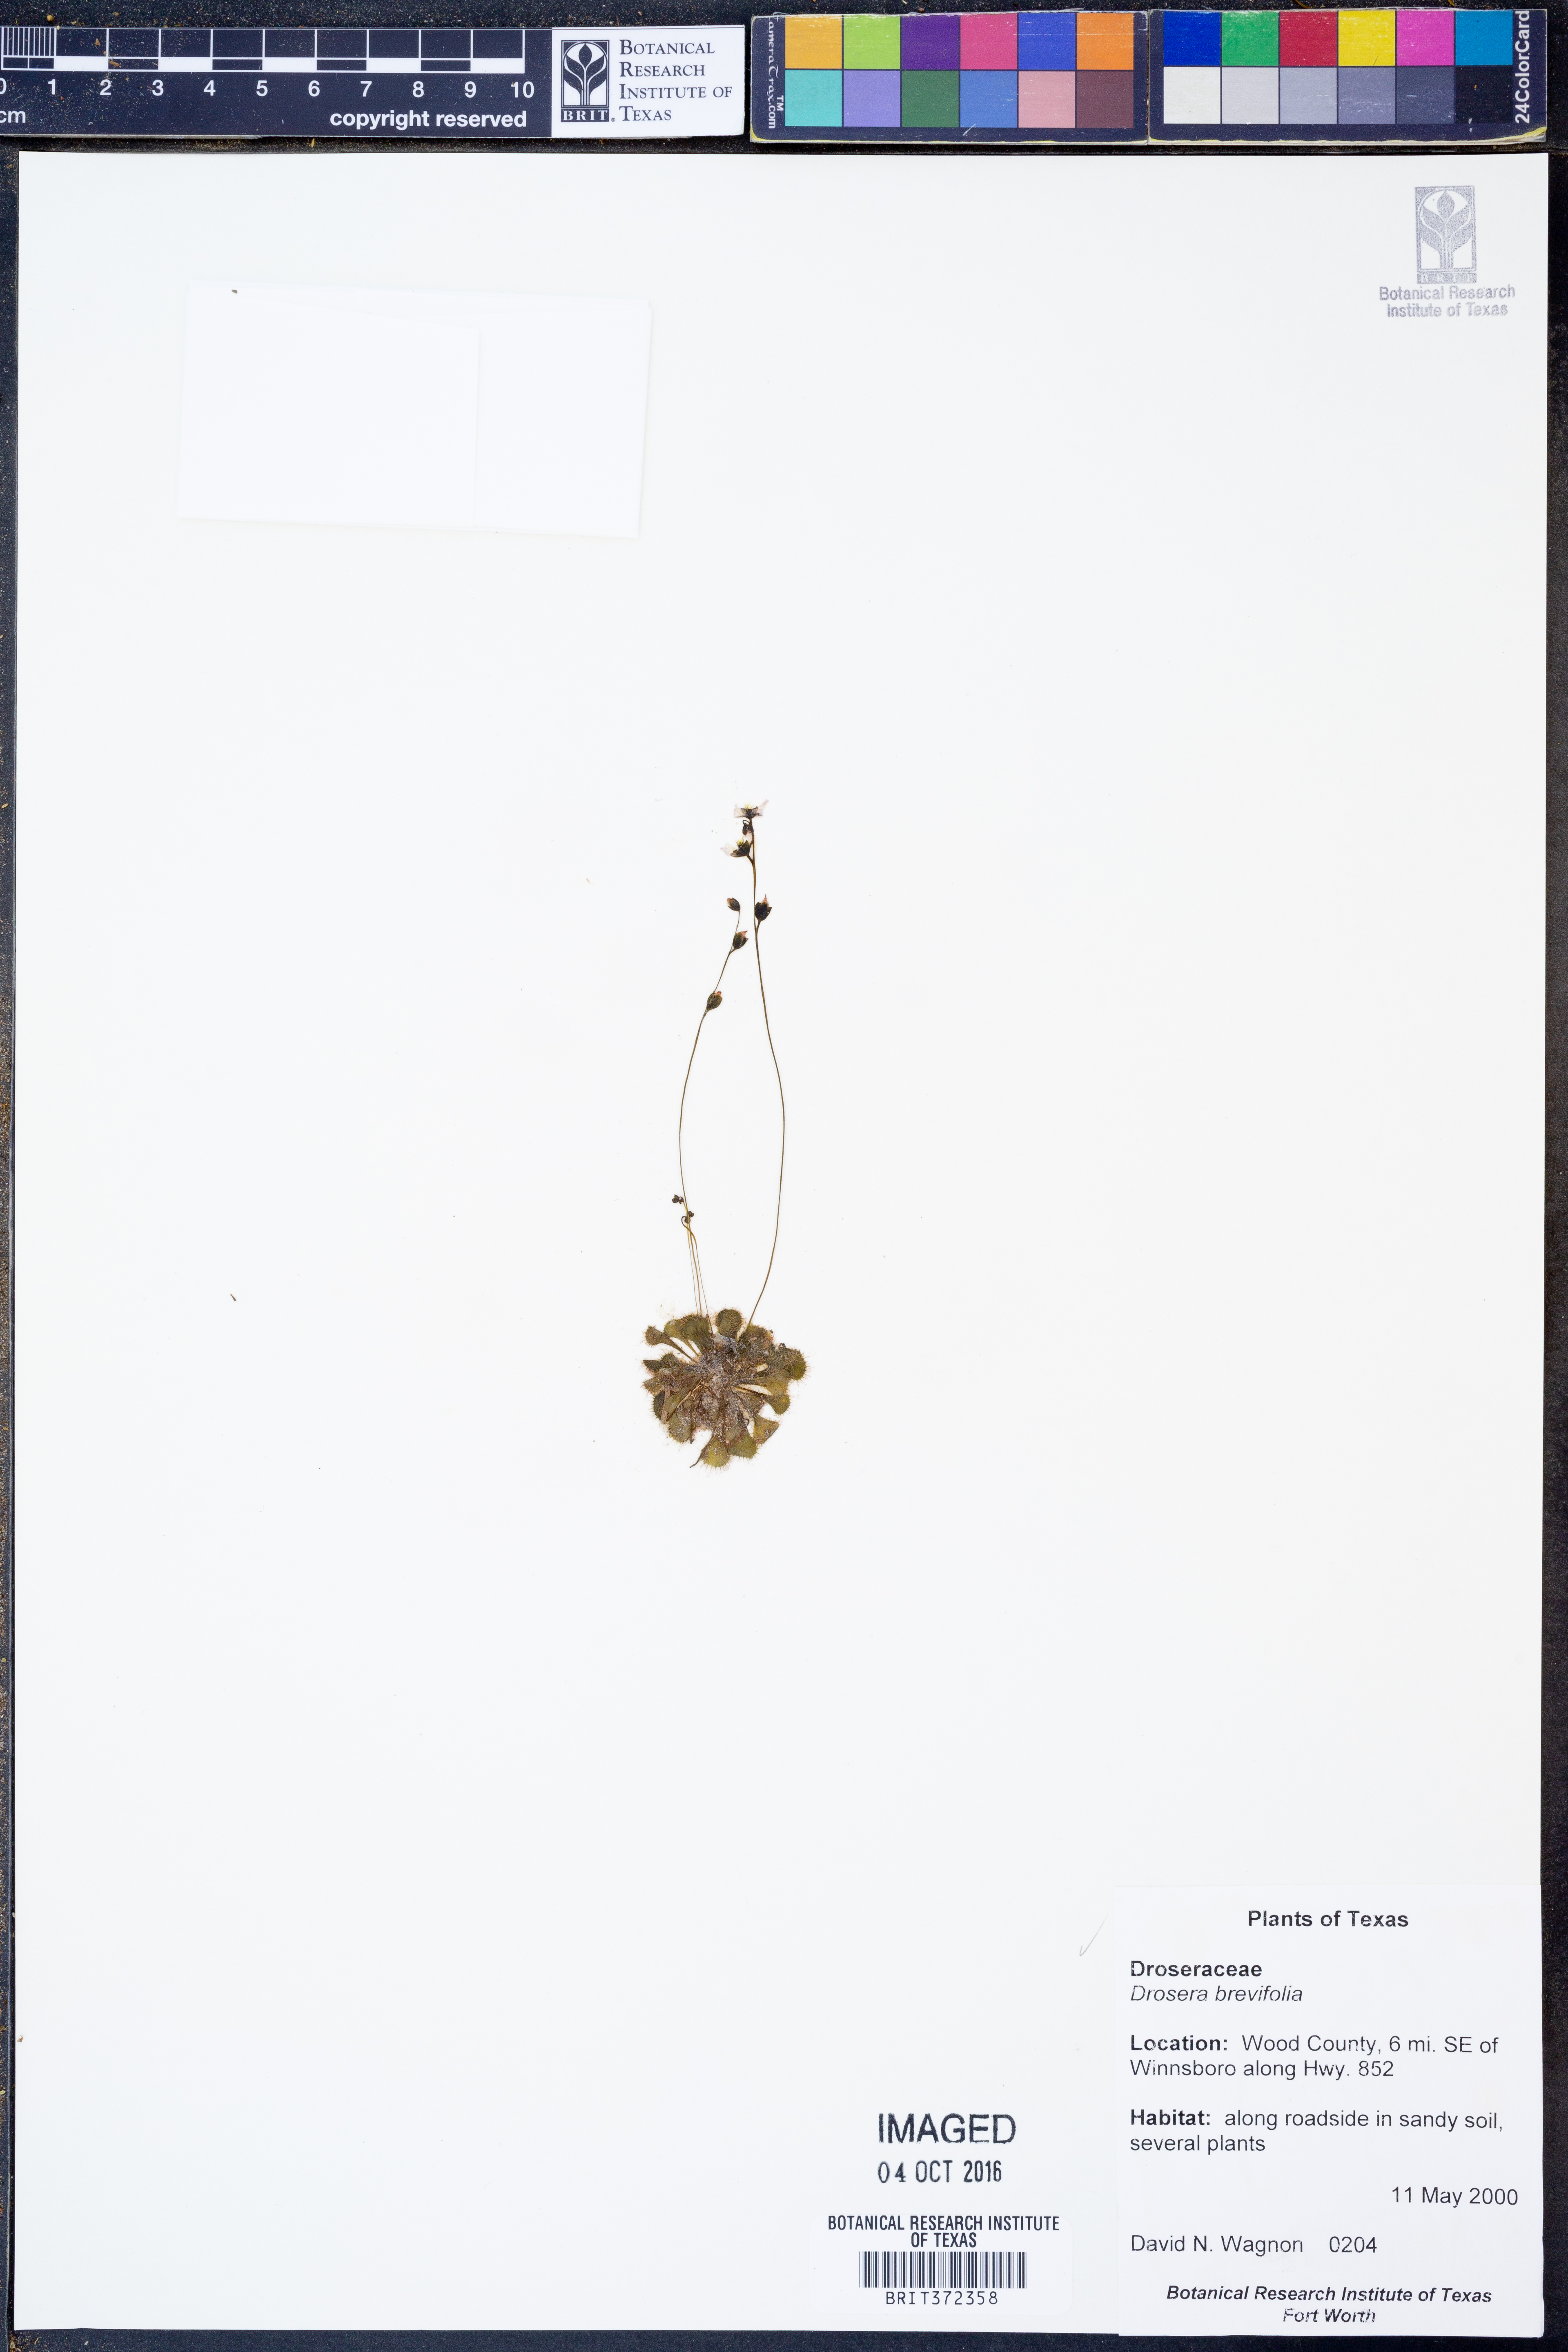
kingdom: Plantae
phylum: Tracheophyta
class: Magnoliopsida
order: Caryophyllales
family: Droseraceae
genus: Drosera
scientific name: Drosera brevifolia
